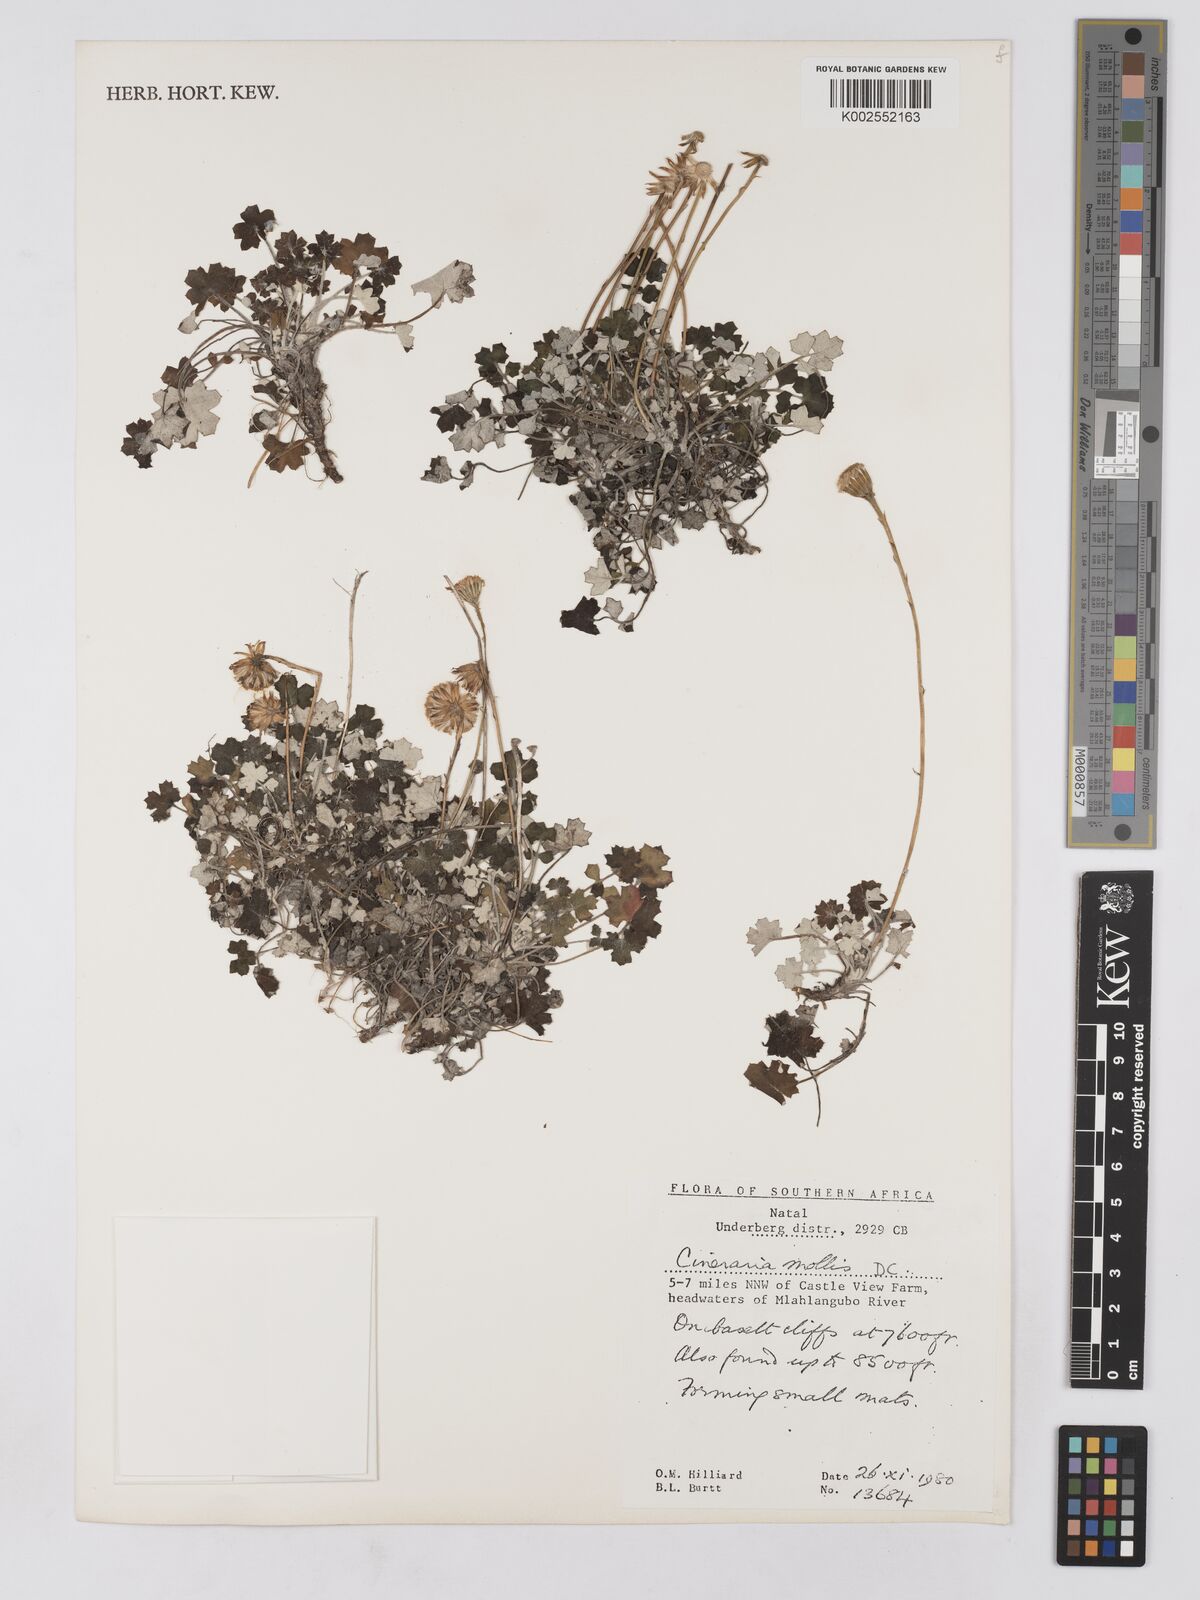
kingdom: Plantae
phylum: Tracheophyta
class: Magnoliopsida
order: Asterales
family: Asteraceae
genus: Cineraria
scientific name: Cineraria mollis
